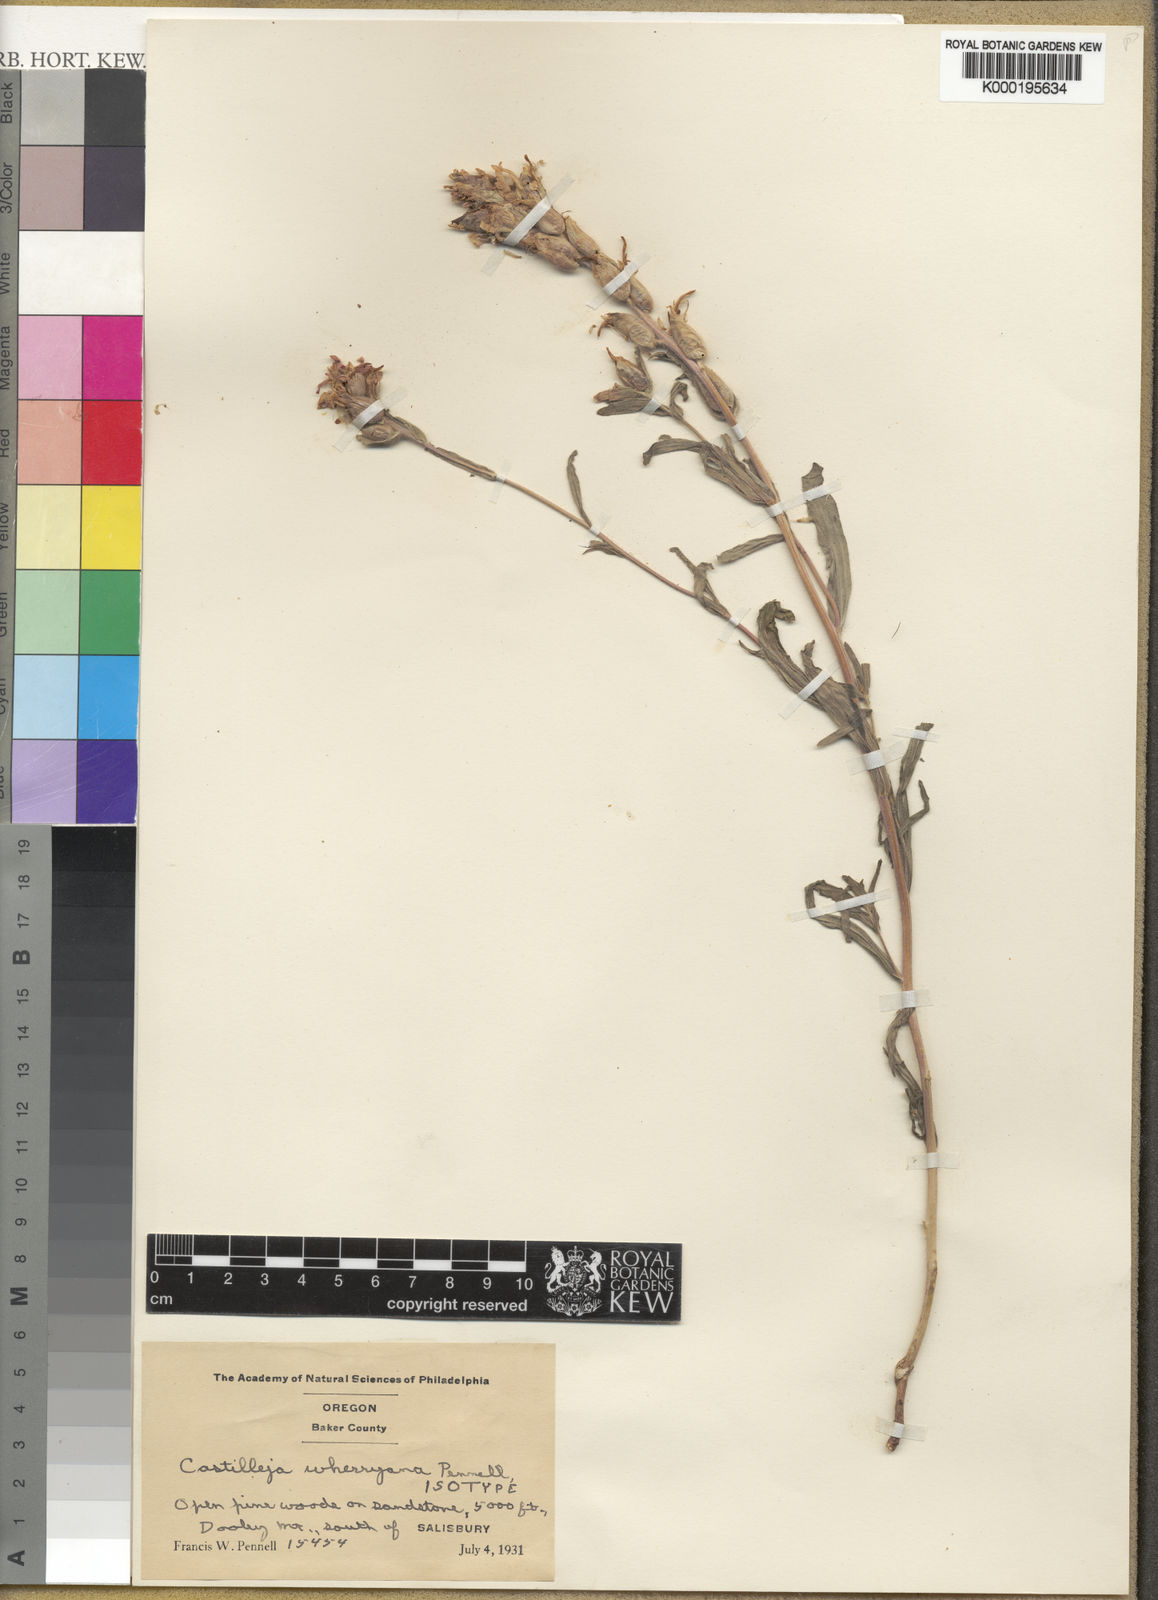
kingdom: Plantae
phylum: Tracheophyta
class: Magnoliopsida
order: Lamiales
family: Orobanchaceae
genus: Castilleja
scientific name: Castilleja applegatei
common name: Wavy-leaf paintbrush
